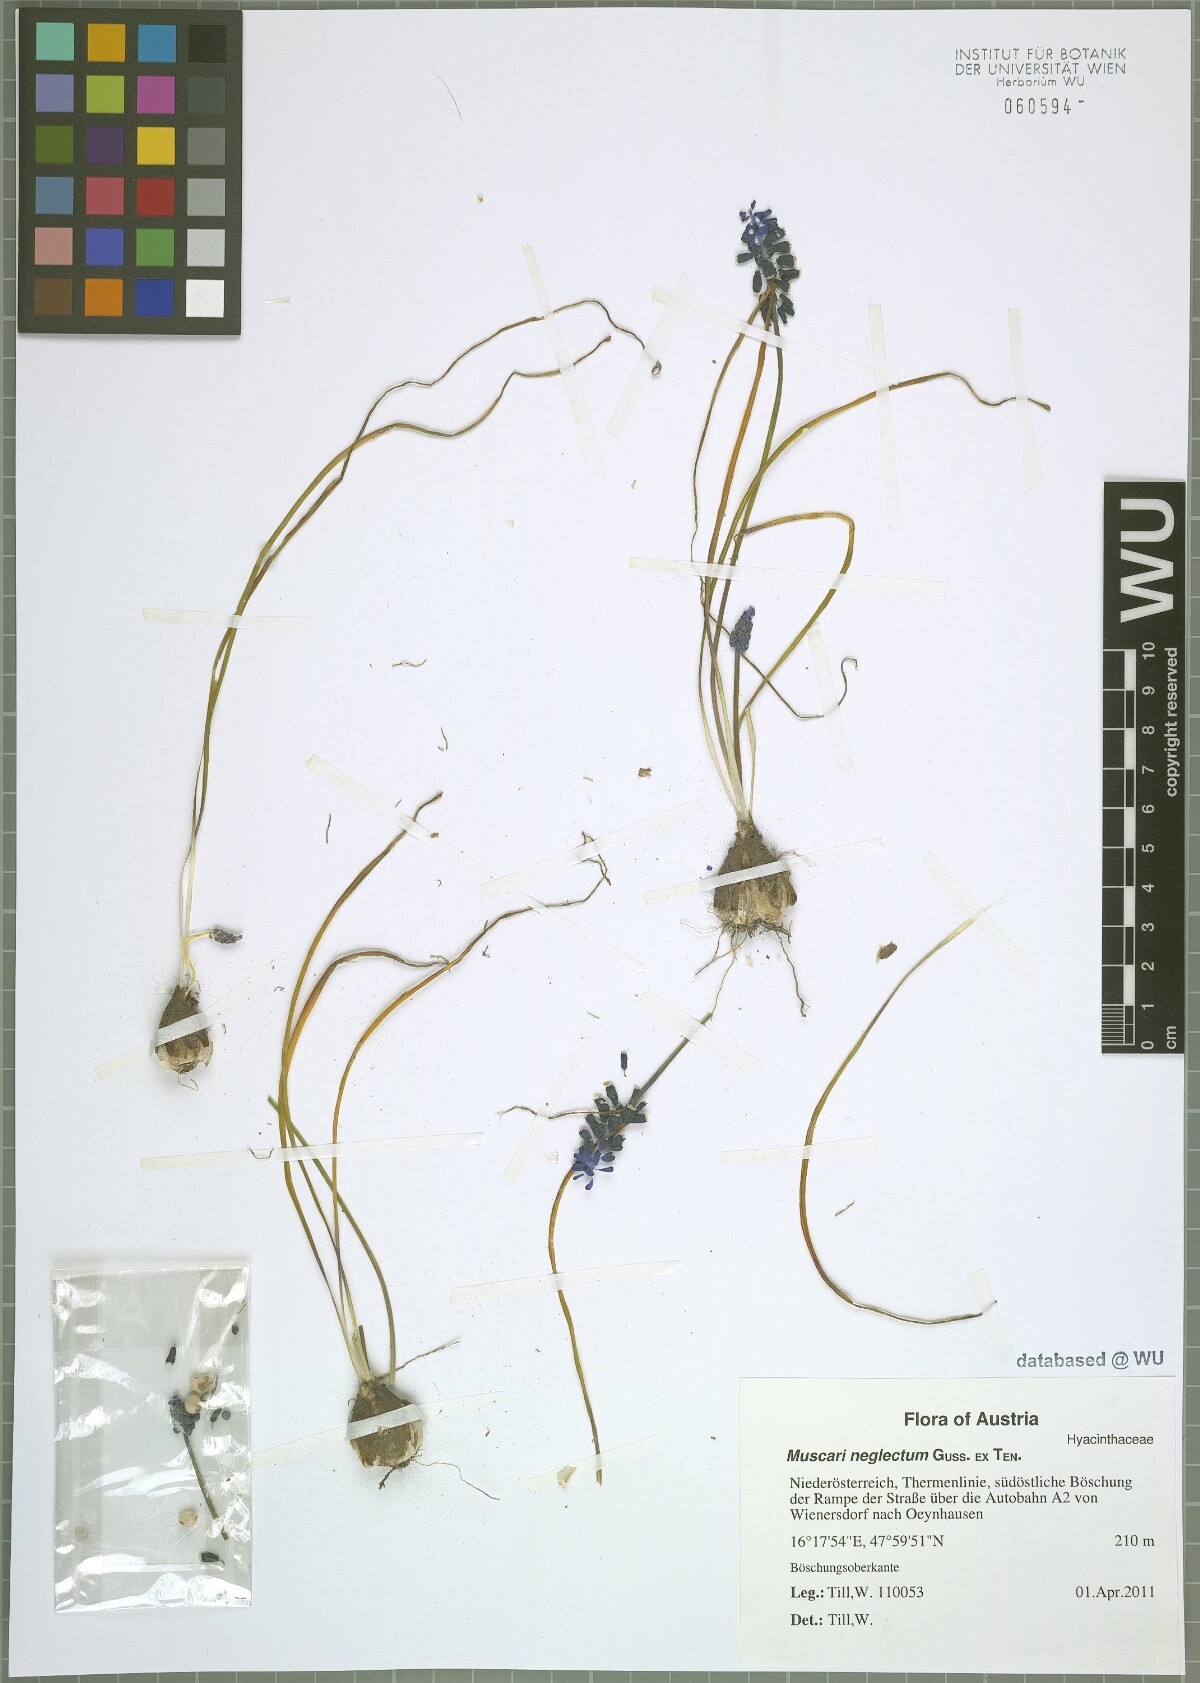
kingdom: Plantae
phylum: Tracheophyta
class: Liliopsida
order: Asparagales
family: Asparagaceae
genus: Muscari
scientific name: Muscari neglectum
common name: Grape-hyacinth
